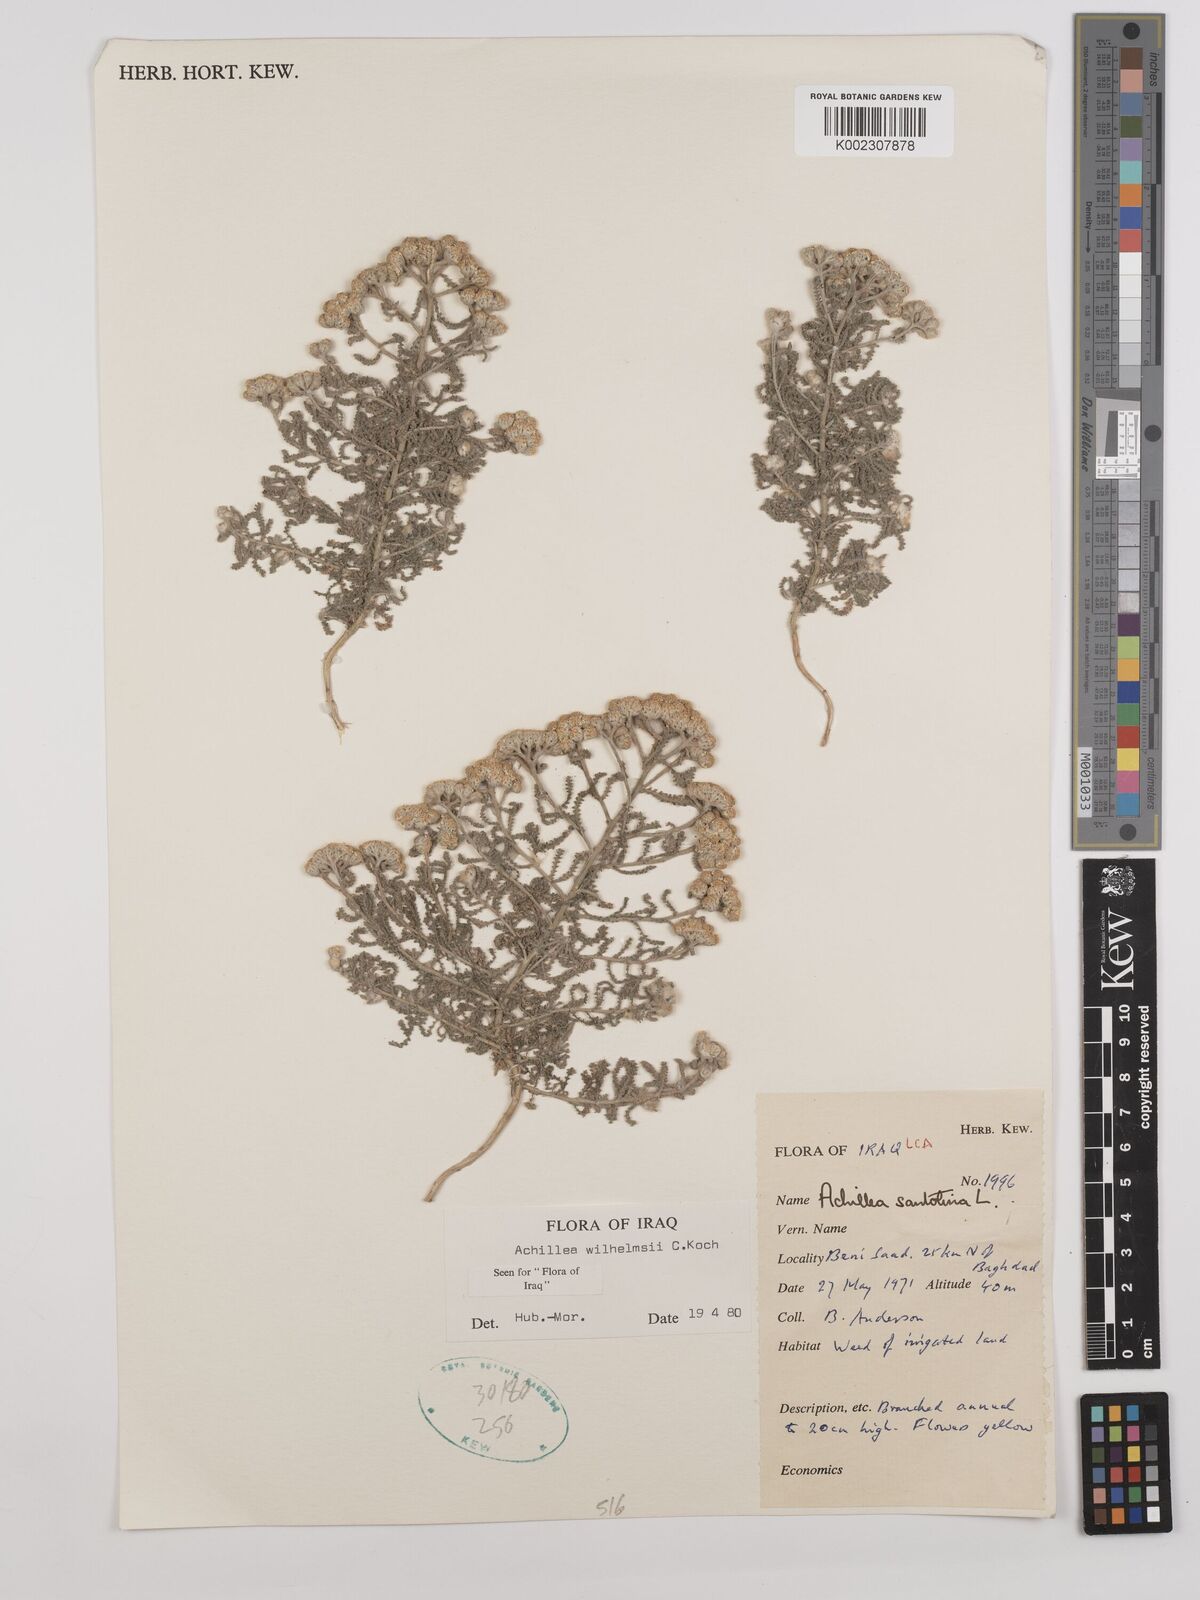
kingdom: Plantae
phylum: Tracheophyta
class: Magnoliopsida
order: Asterales
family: Asteraceae
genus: Achillea
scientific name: Achillea wilhelmsii
